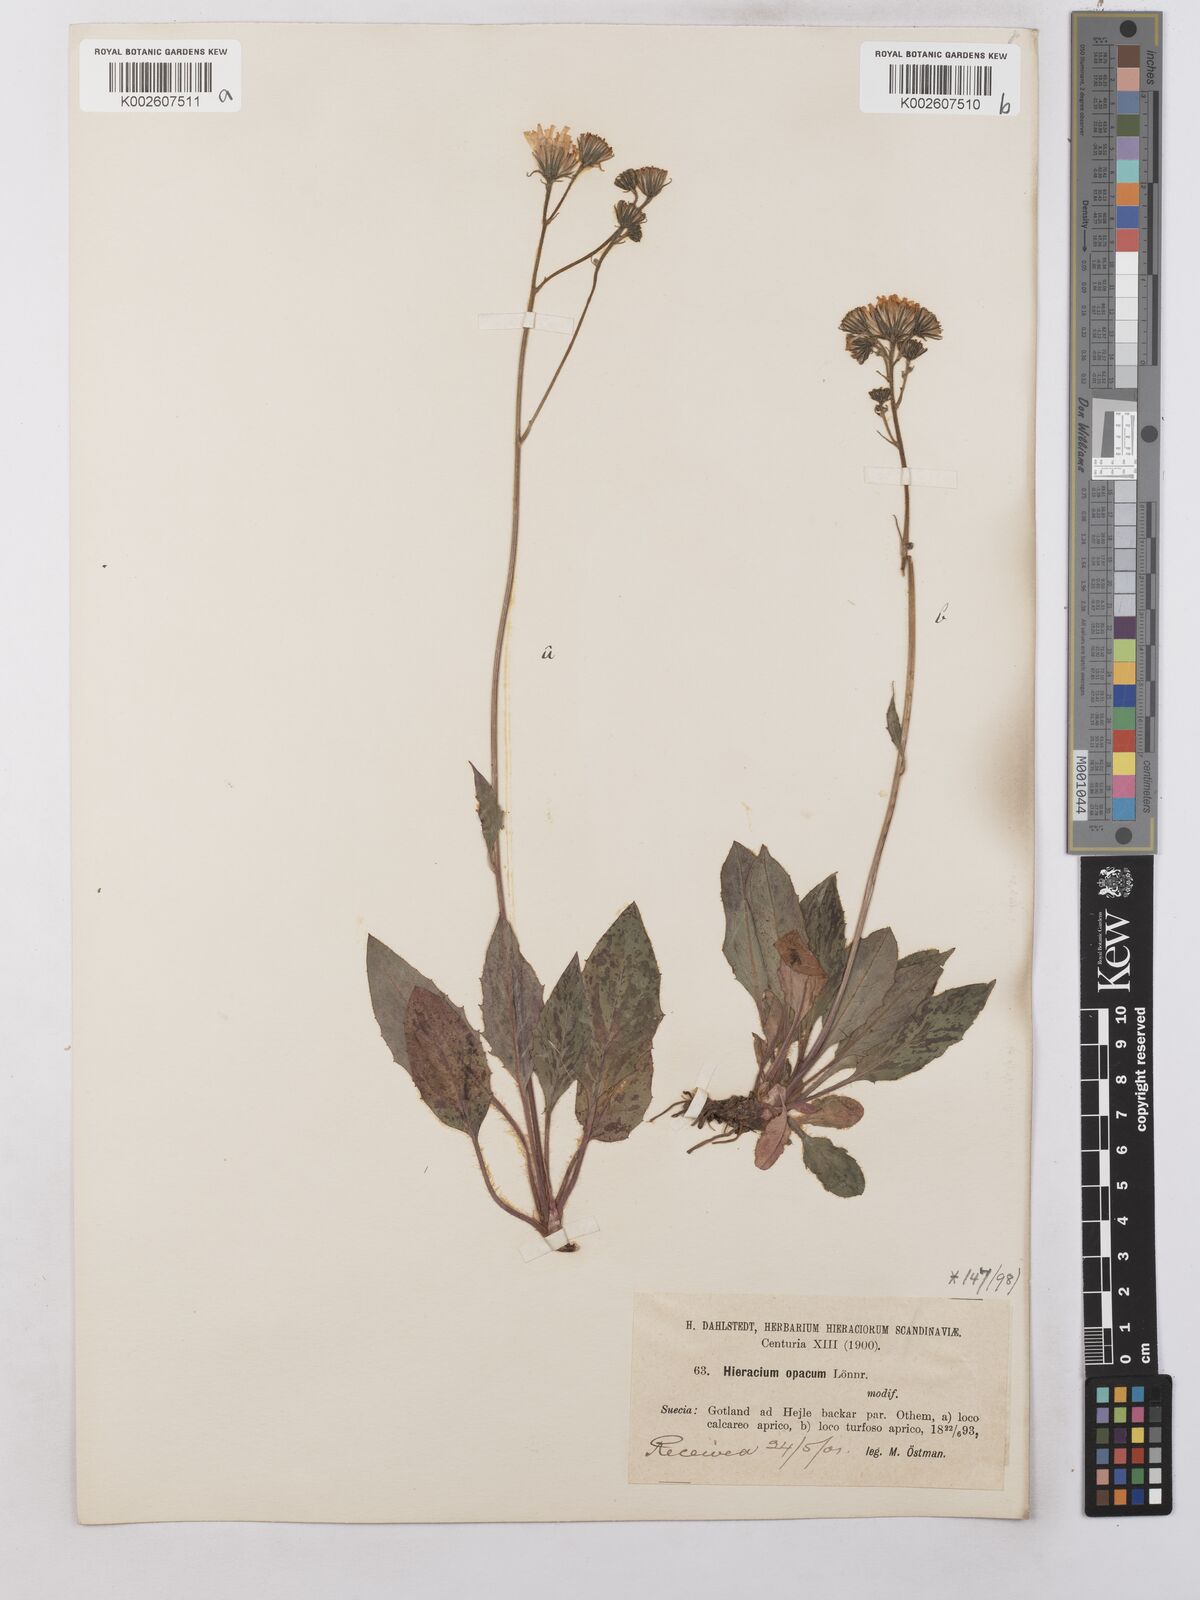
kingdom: Plantae
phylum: Tracheophyta
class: Magnoliopsida
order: Asterales
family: Asteraceae
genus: Hieracium
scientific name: Hieracium caesium
